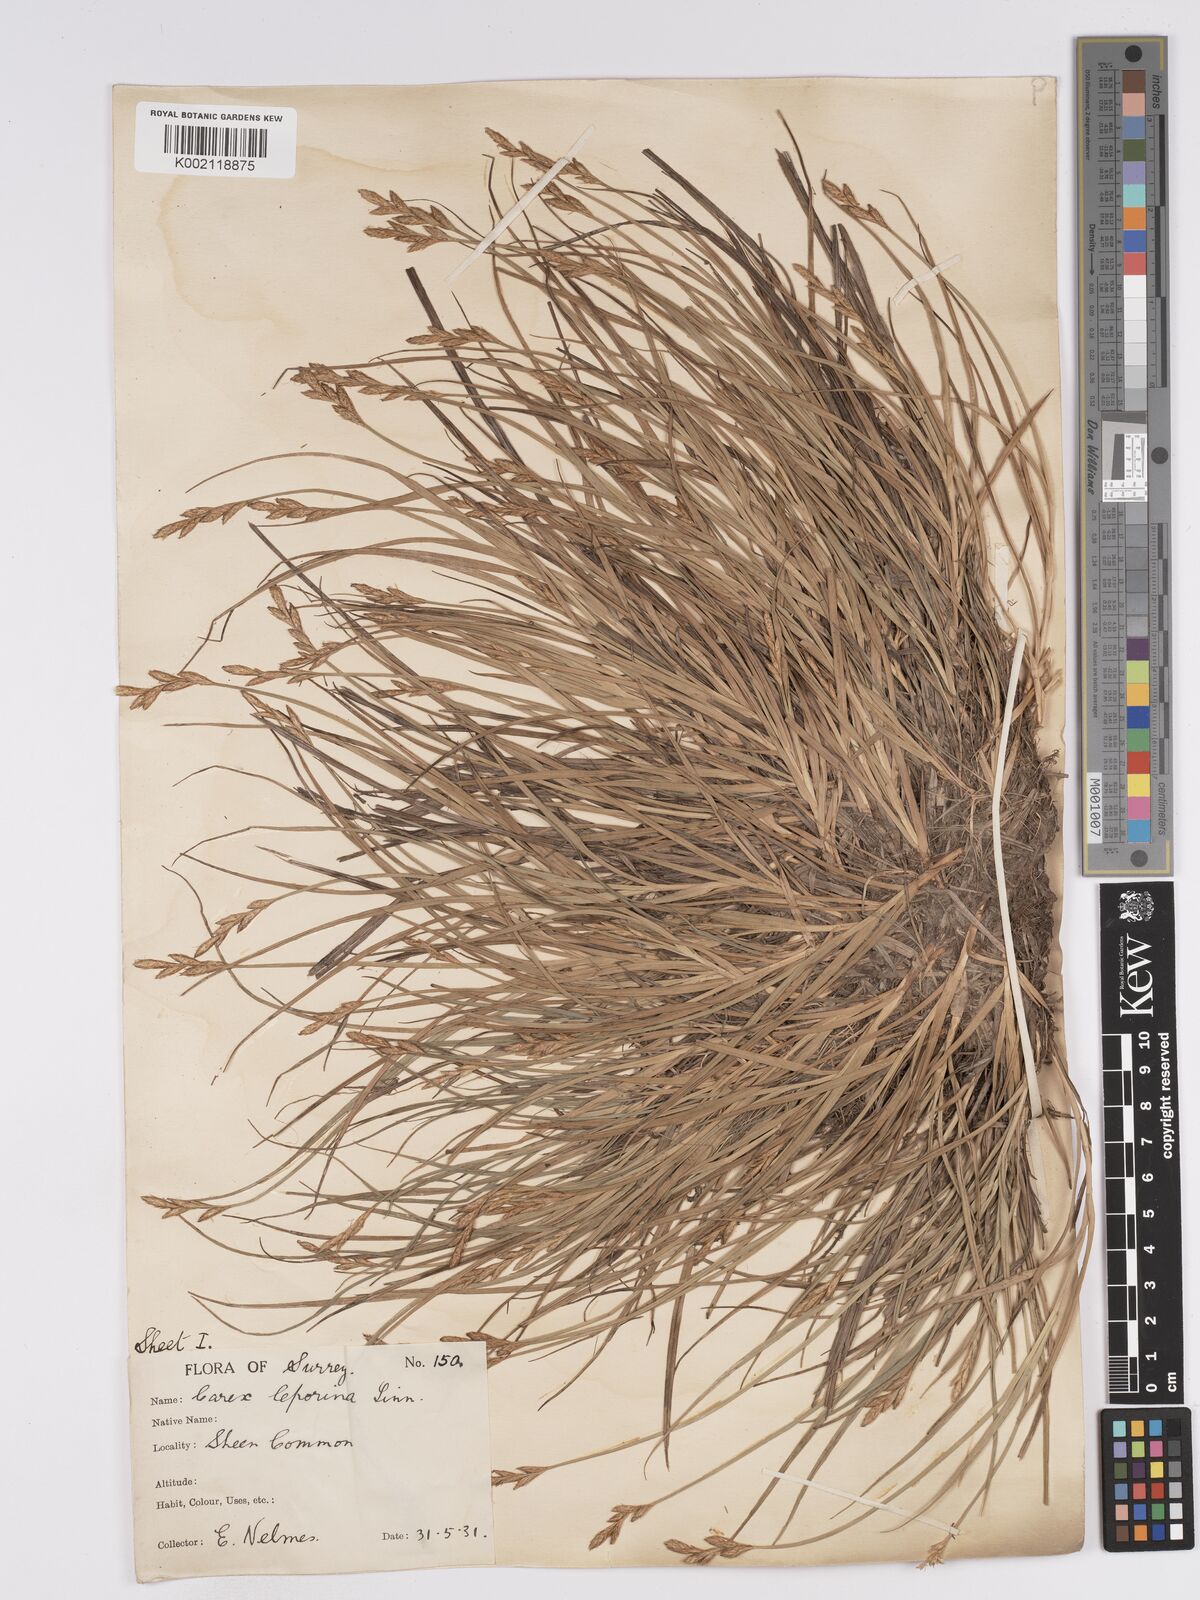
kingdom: Plantae
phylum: Tracheophyta
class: Liliopsida
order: Poales
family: Cyperaceae
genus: Carex
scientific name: Carex leporina
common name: Oval sedge
